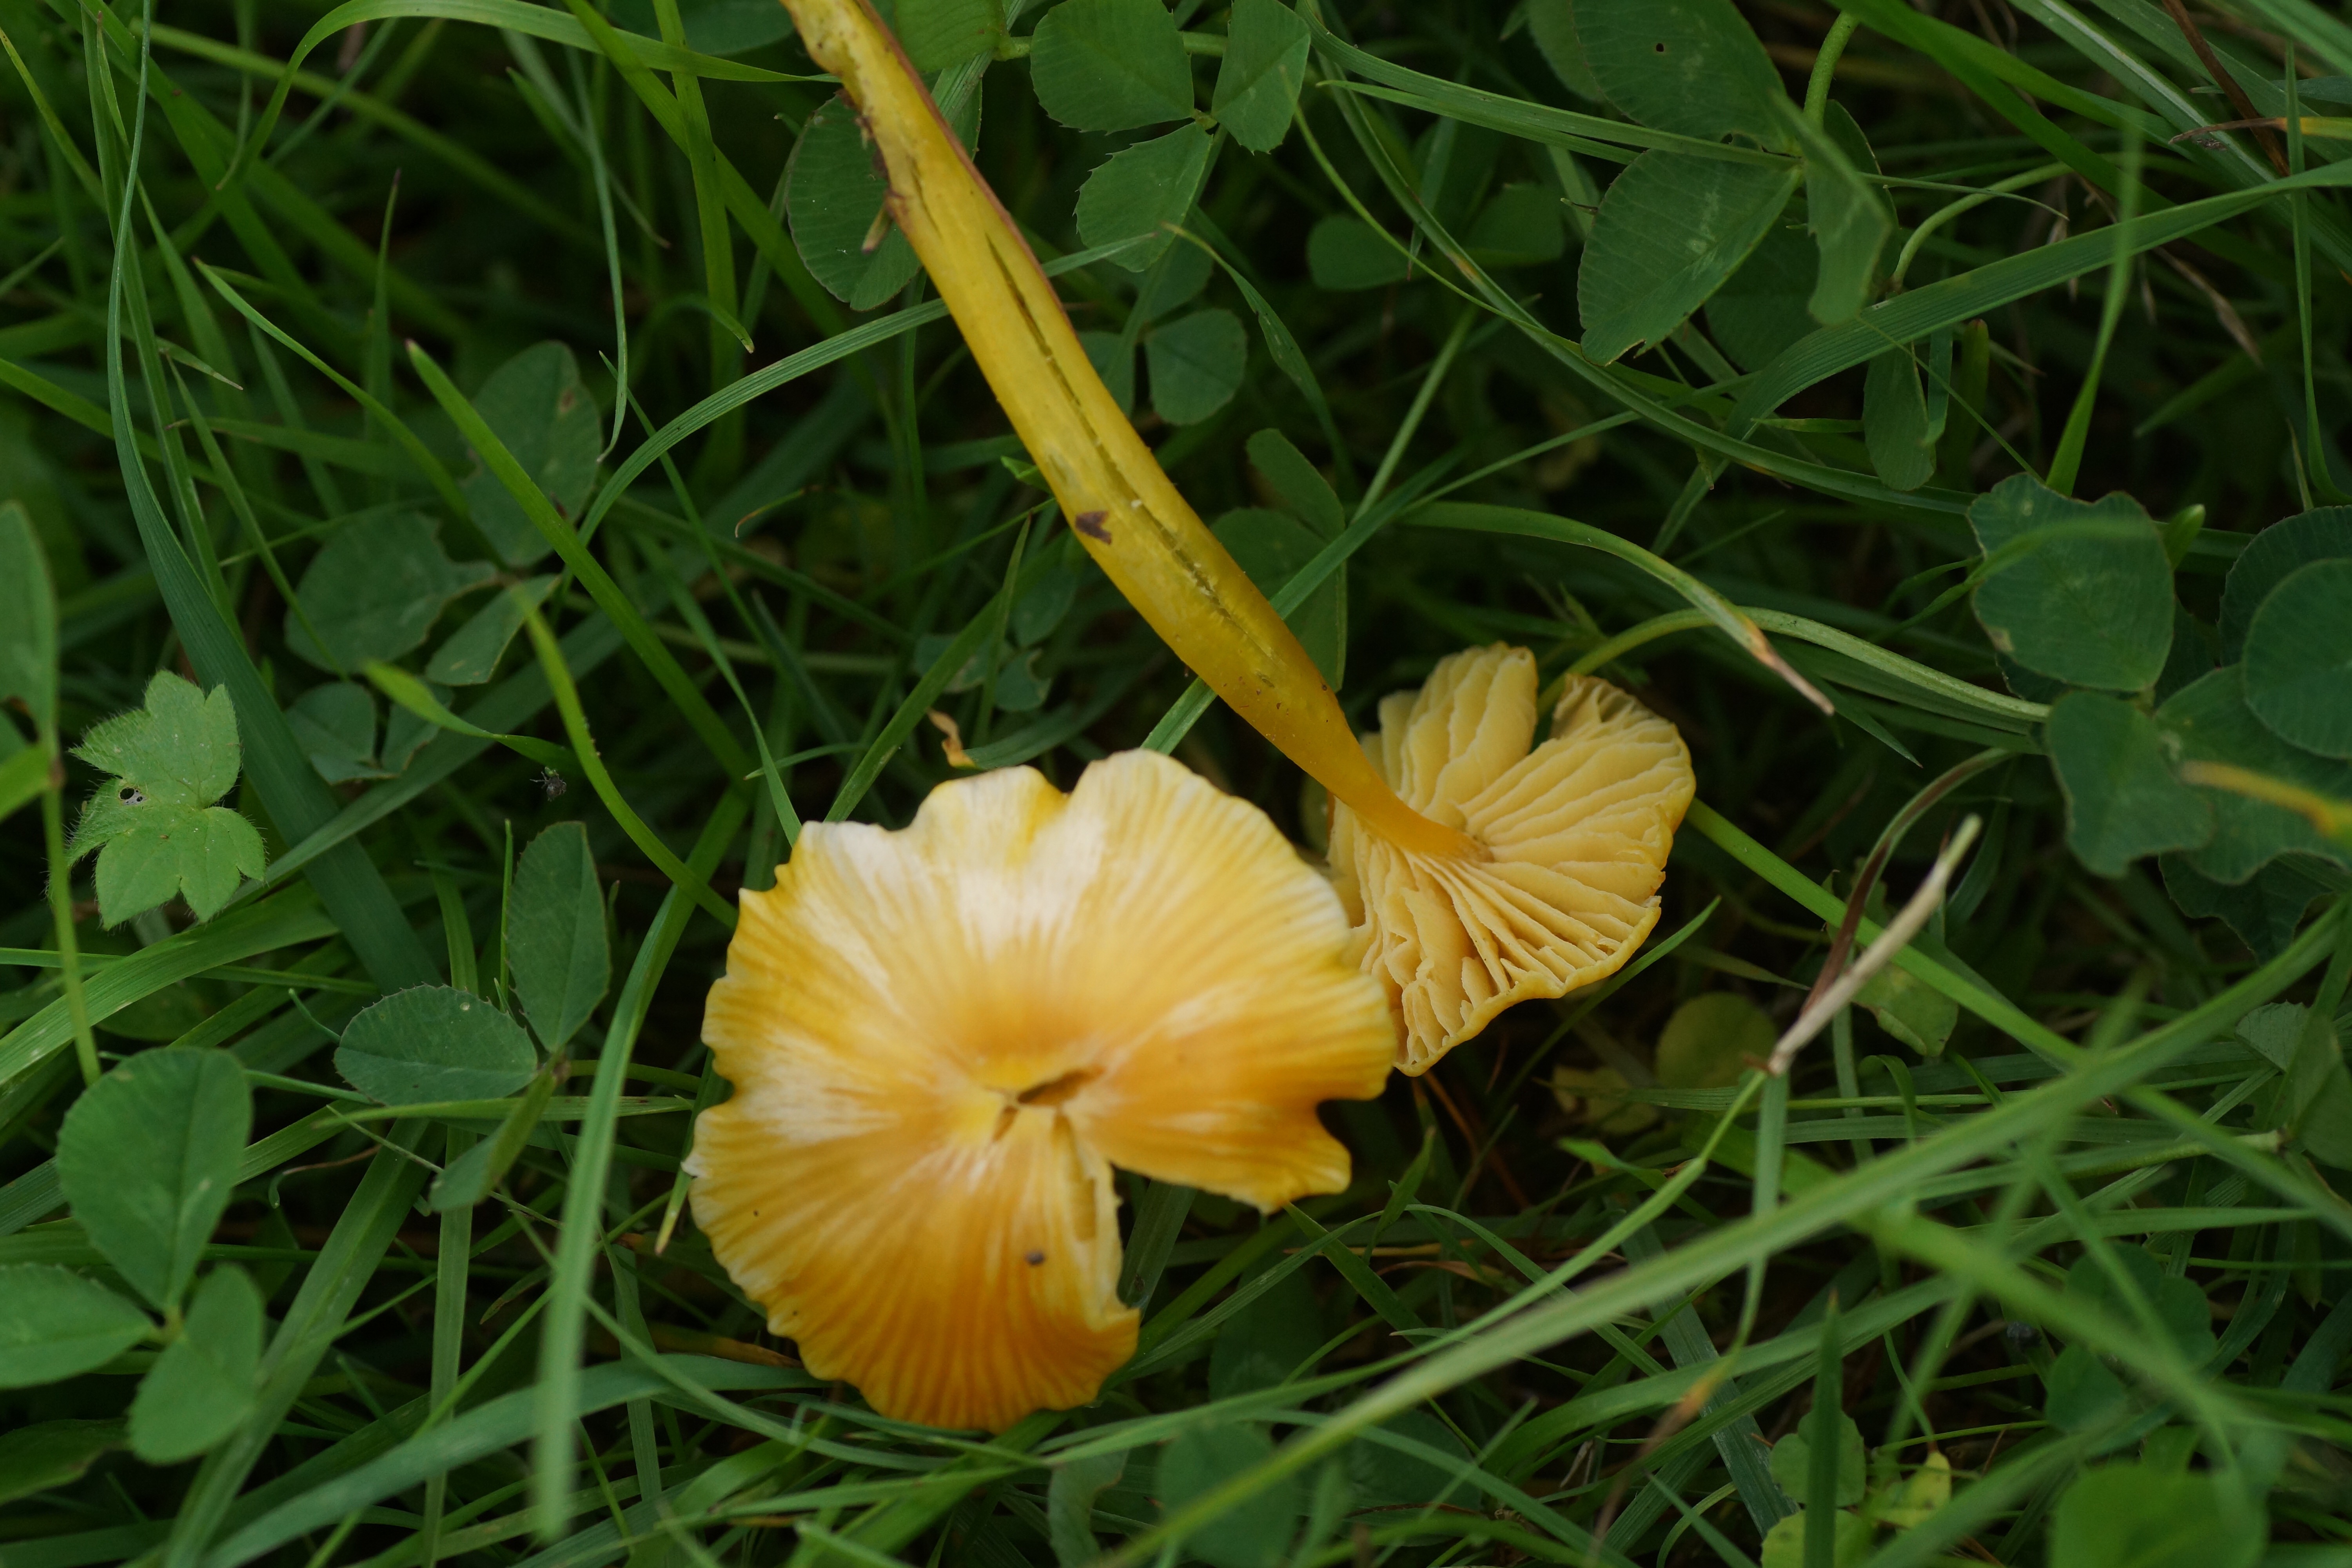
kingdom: Fungi
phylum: Basidiomycota
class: Agaricomycetes
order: Agaricales
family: Hygrophoraceae
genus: Hygrocybe
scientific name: Hygrocybe glutinipes
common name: slimstokket vokshat
